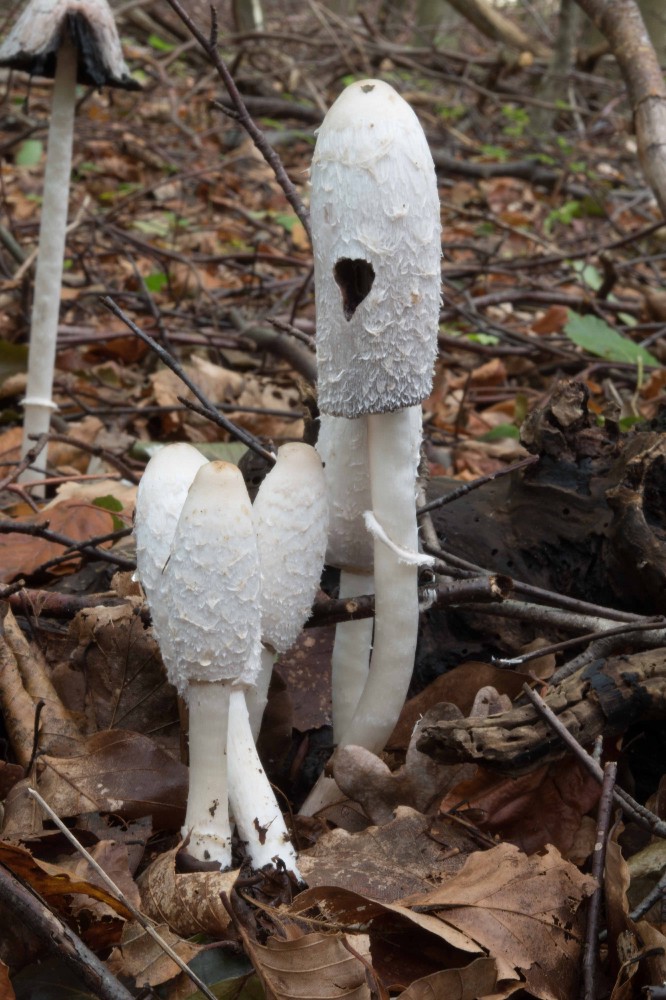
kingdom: Fungi
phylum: Basidiomycota
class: Agaricomycetes
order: Agaricales
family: Agaricaceae
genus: Coprinus
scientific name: Coprinus comatus
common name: stor parykhat
